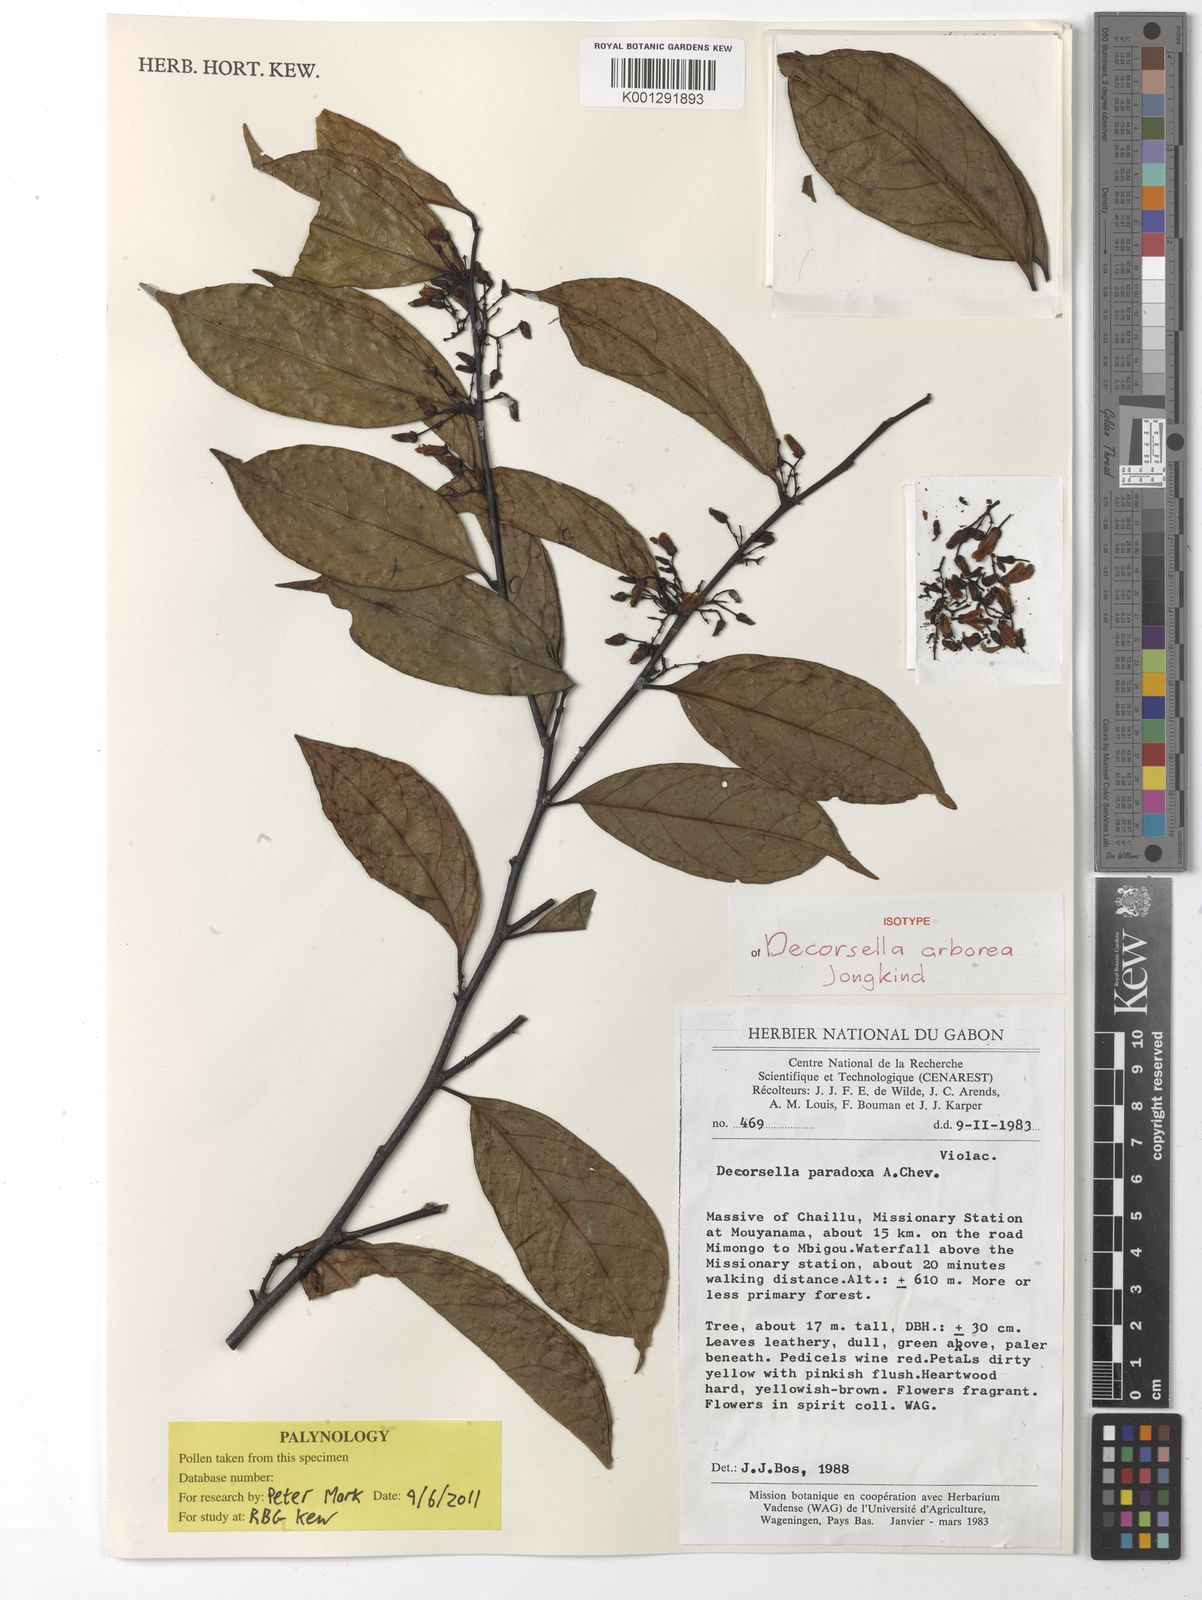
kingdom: Plantae
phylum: Tracheophyta
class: Magnoliopsida
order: Malpighiales
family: Violaceae
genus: Decorsella
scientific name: Decorsella arborea
